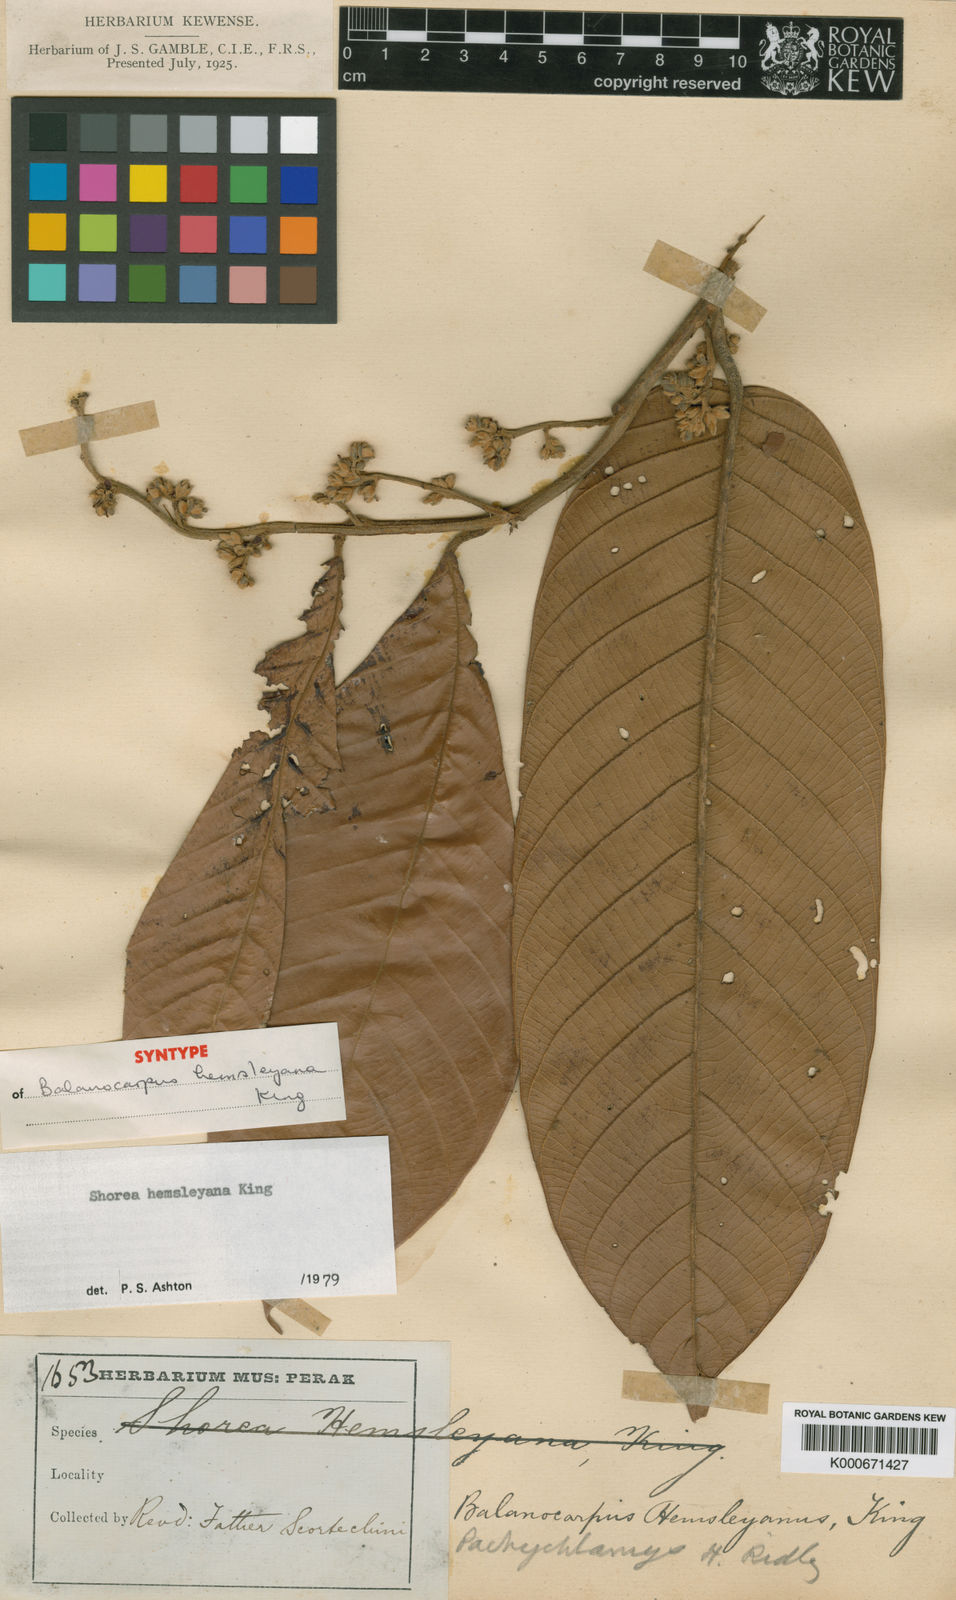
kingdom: Plantae
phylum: Tracheophyta
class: Magnoliopsida
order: Malvales
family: Dipterocarpaceae
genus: Shorea
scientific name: Shorea hemsleyana
